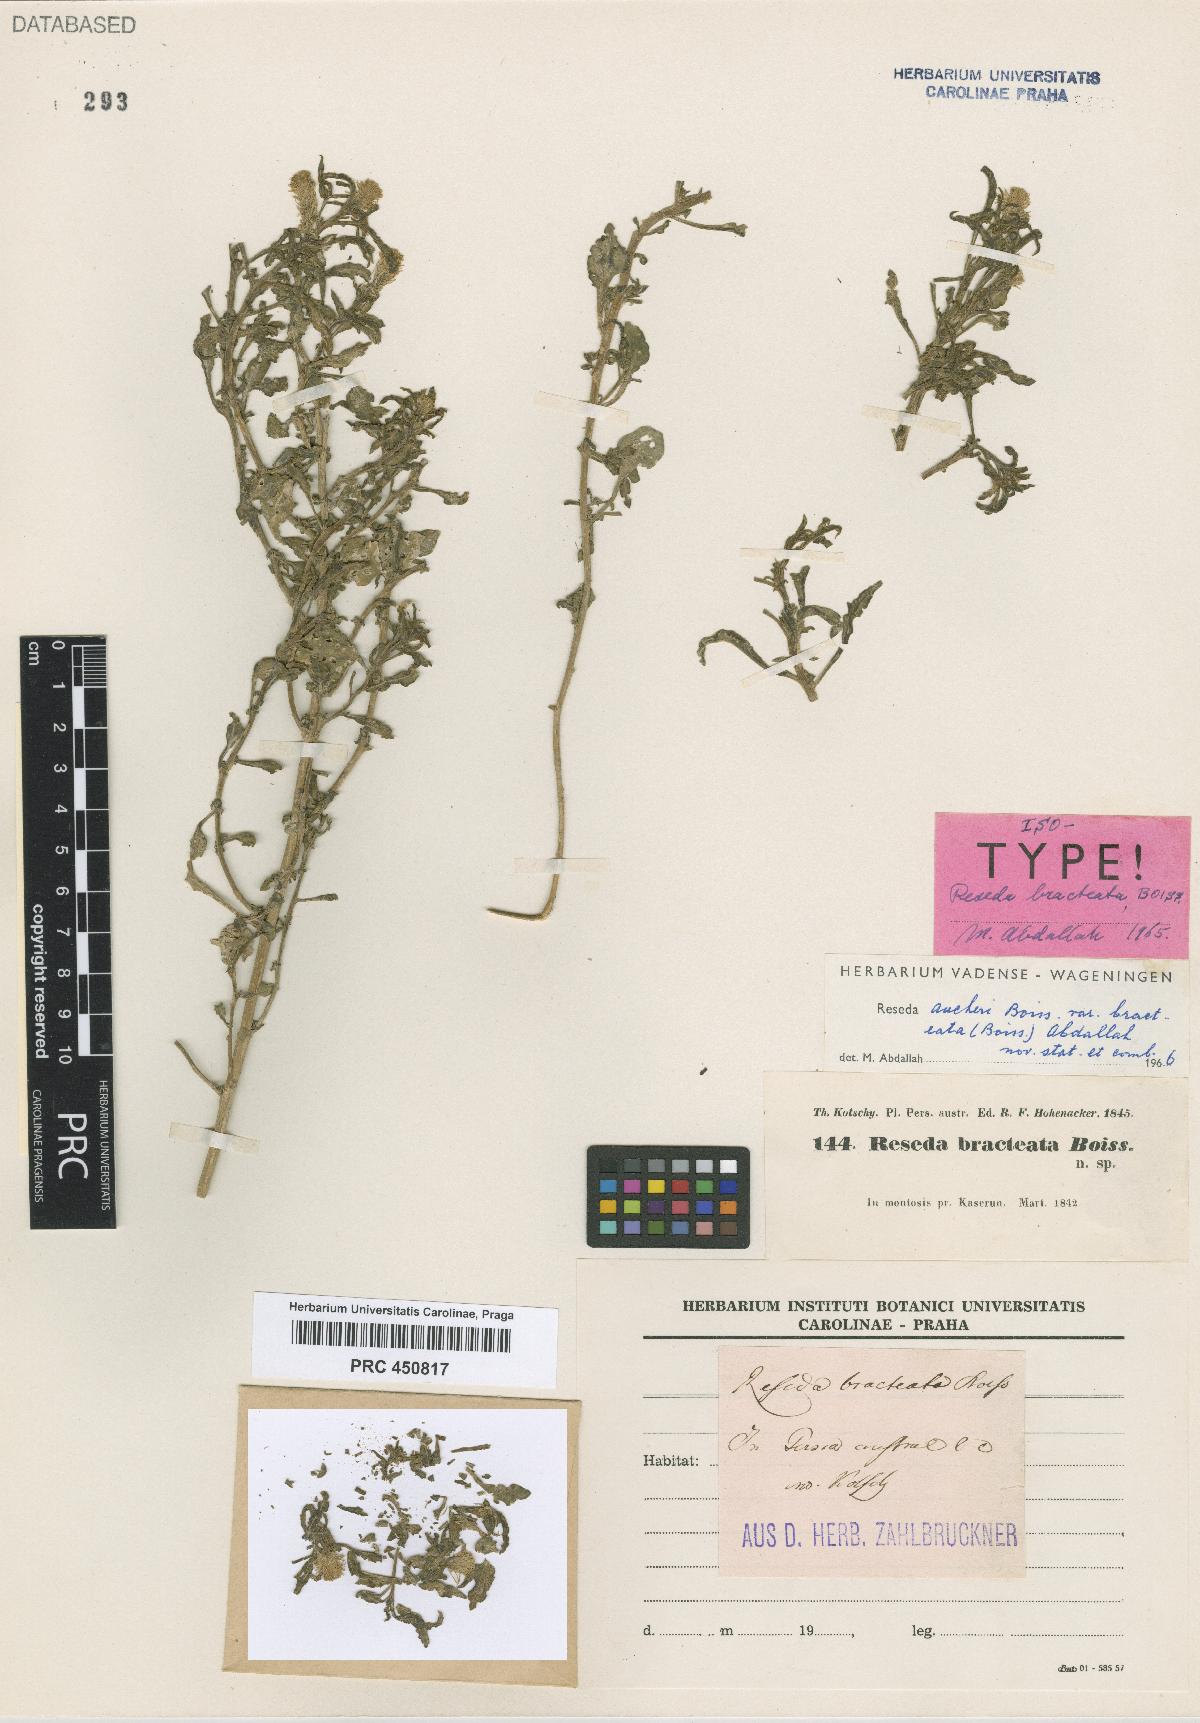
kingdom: Plantae
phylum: Tracheophyta
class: Magnoliopsida
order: Brassicales
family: Resedaceae
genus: Reseda
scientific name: Reseda aucheri
